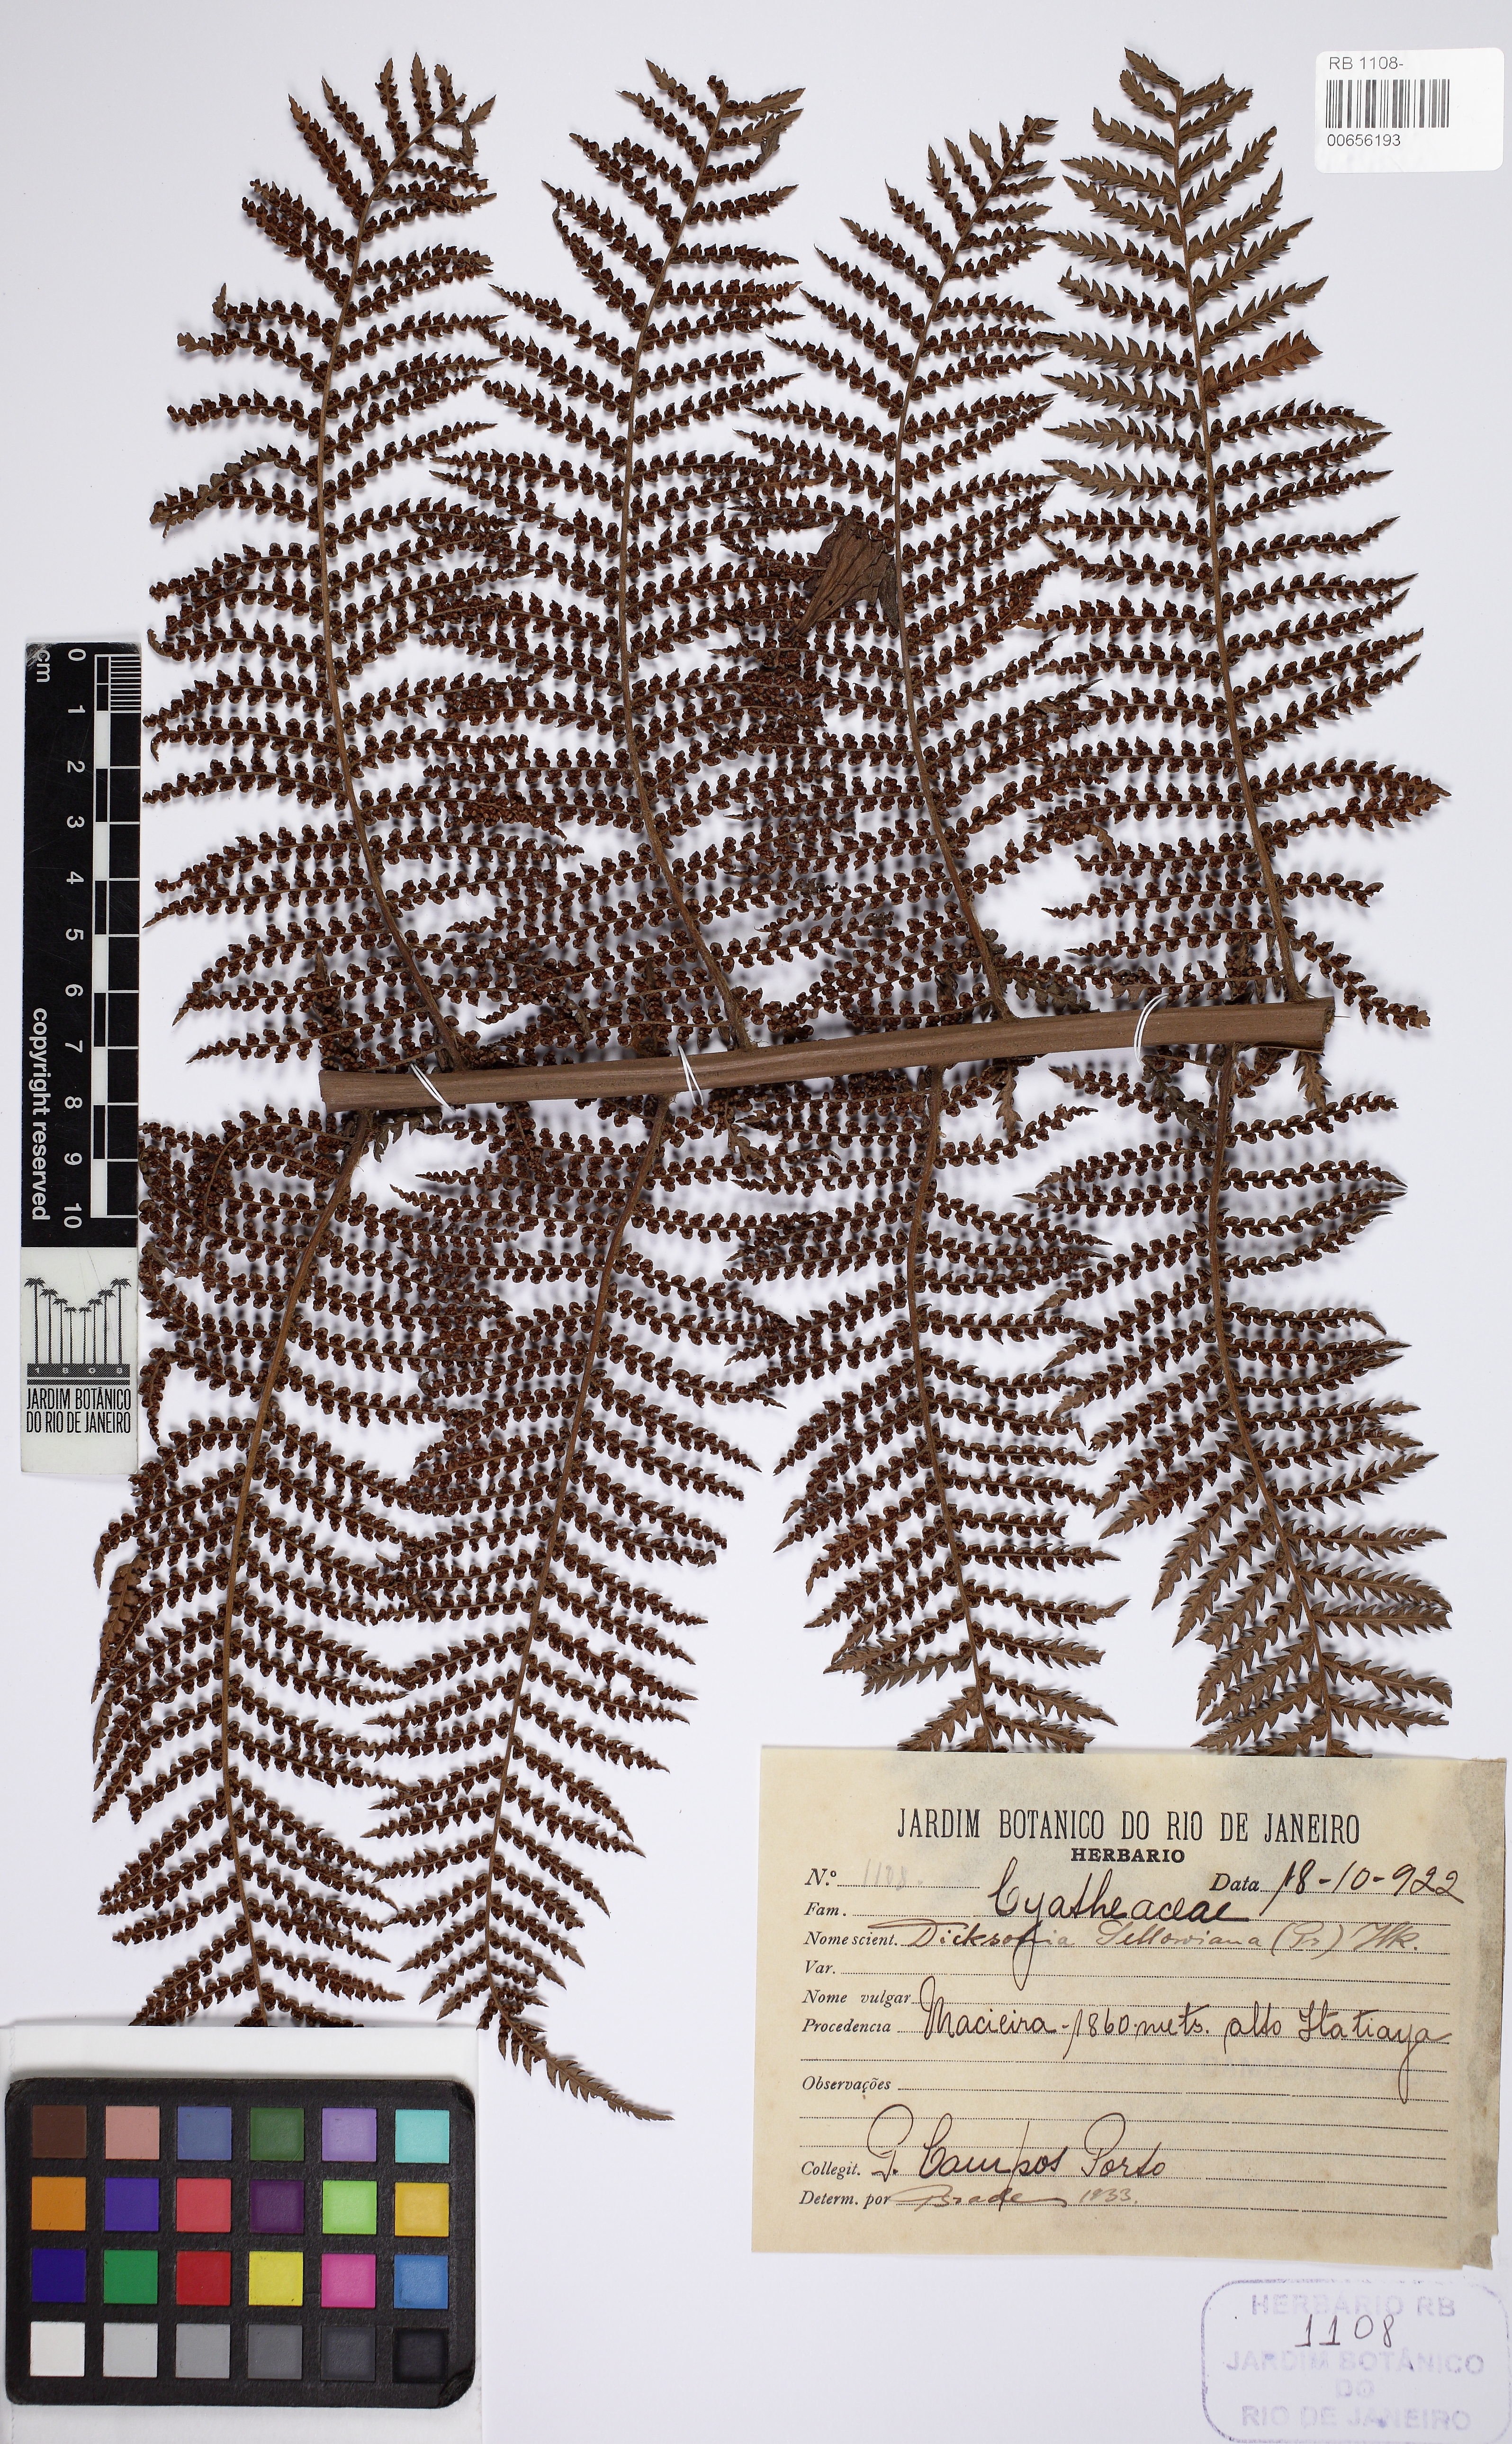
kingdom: Plantae
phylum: Tracheophyta
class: Polypodiopsida
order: Cyatheales
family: Dicksoniaceae
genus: Dicksonia
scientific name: Dicksonia sellowiana
